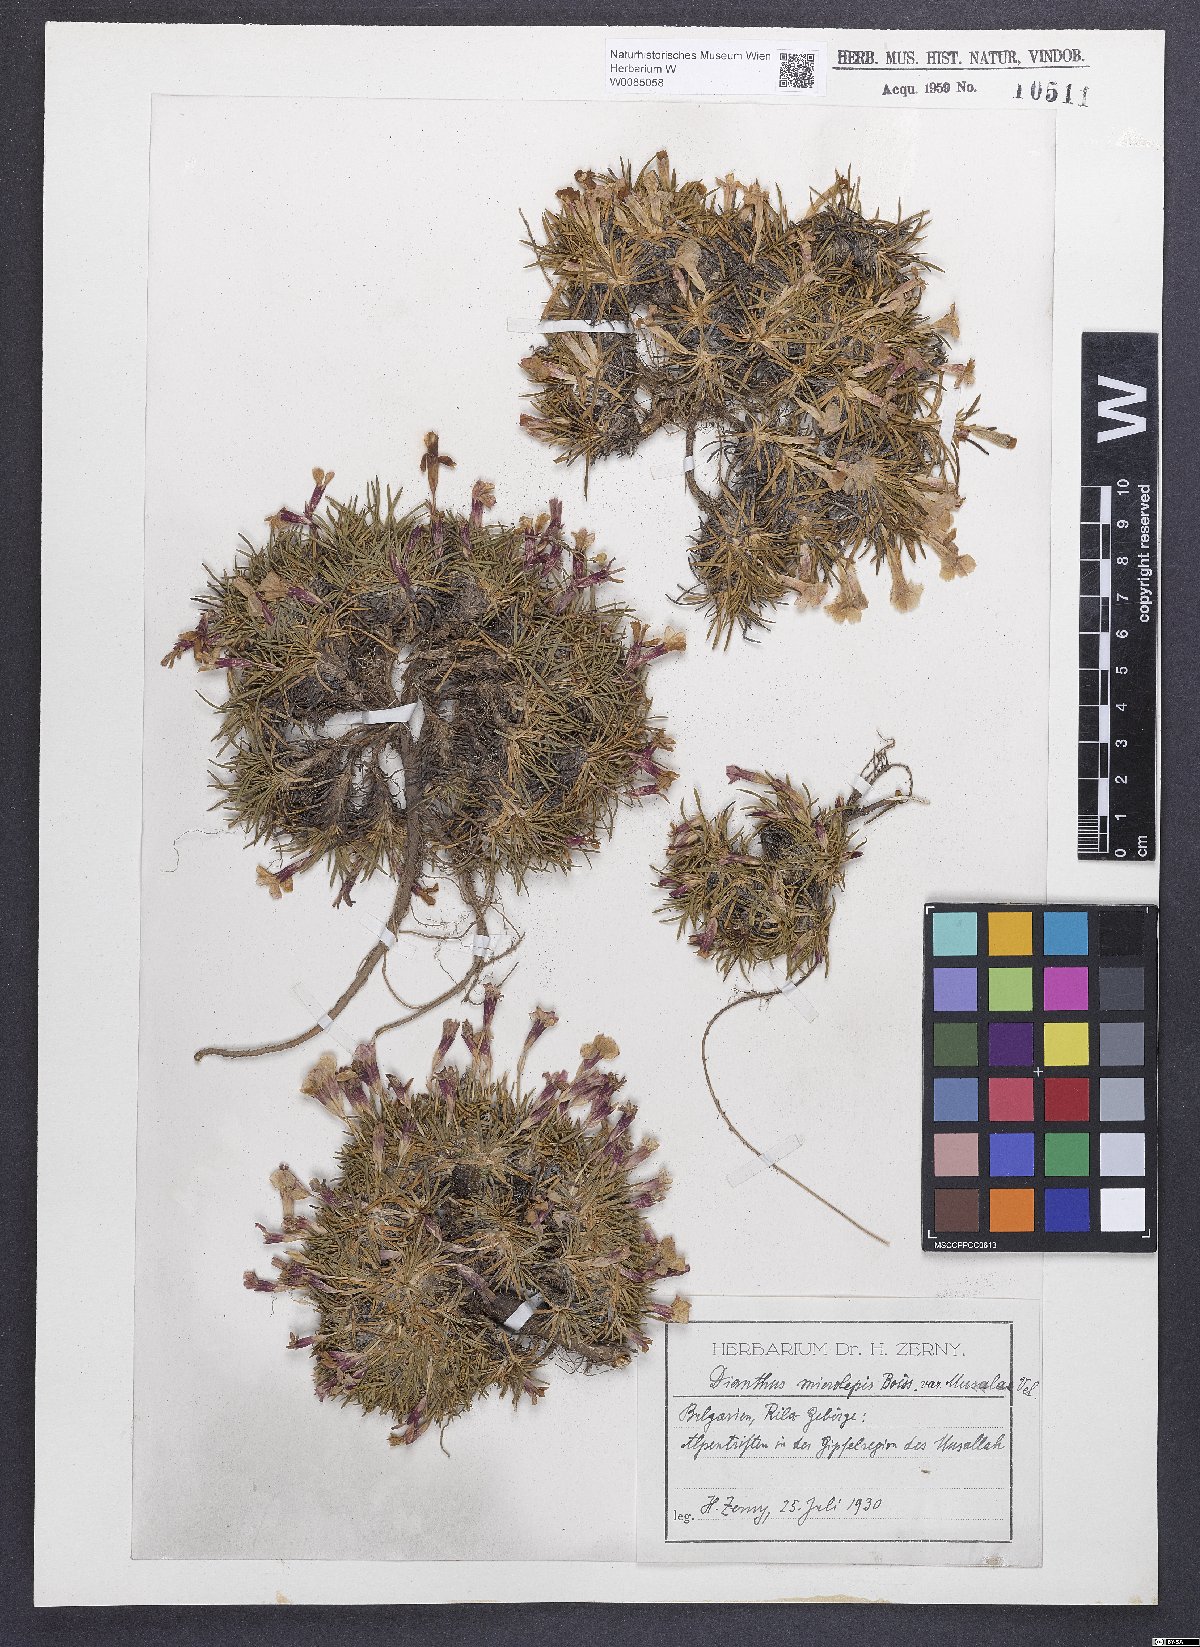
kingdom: Plantae
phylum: Tracheophyta
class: Magnoliopsida
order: Caryophyllales
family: Caryophyllaceae
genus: Dianthus
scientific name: Dianthus microlepis
